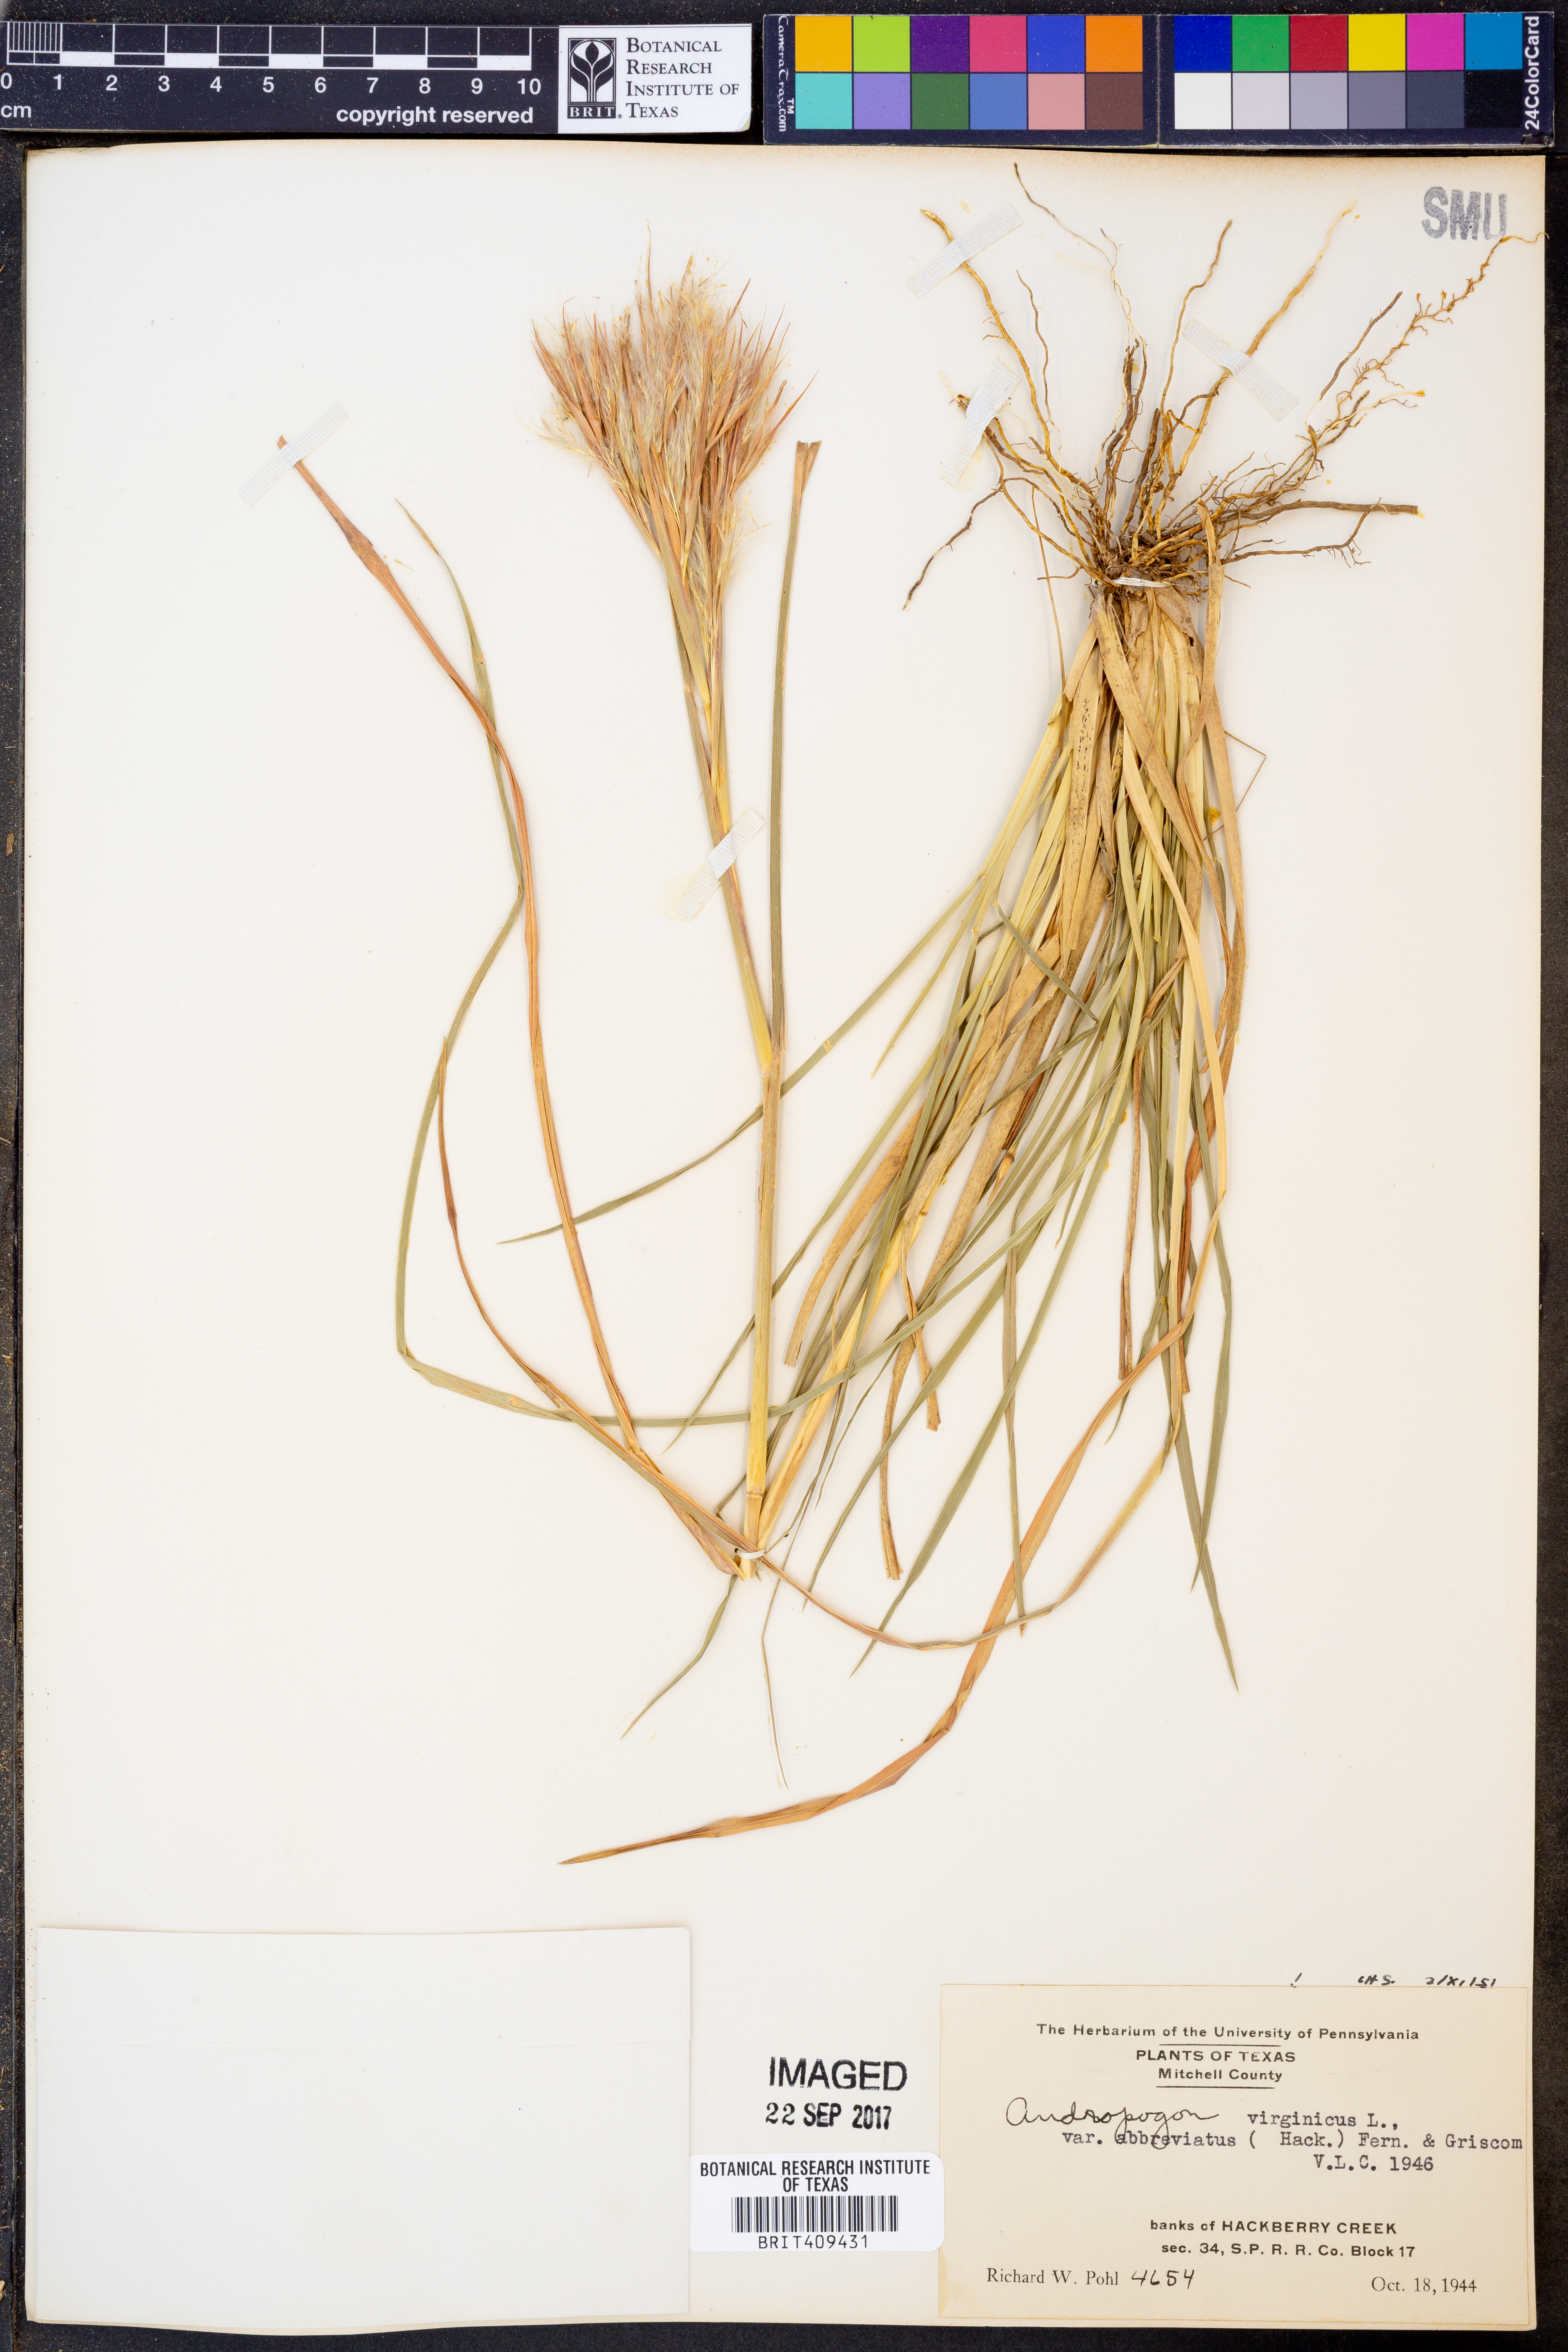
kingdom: Plantae
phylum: Tracheophyta
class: Liliopsida
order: Poales
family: Poaceae
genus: Andropogon
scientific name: Andropogon glomeratus
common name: Bushy beard grass
